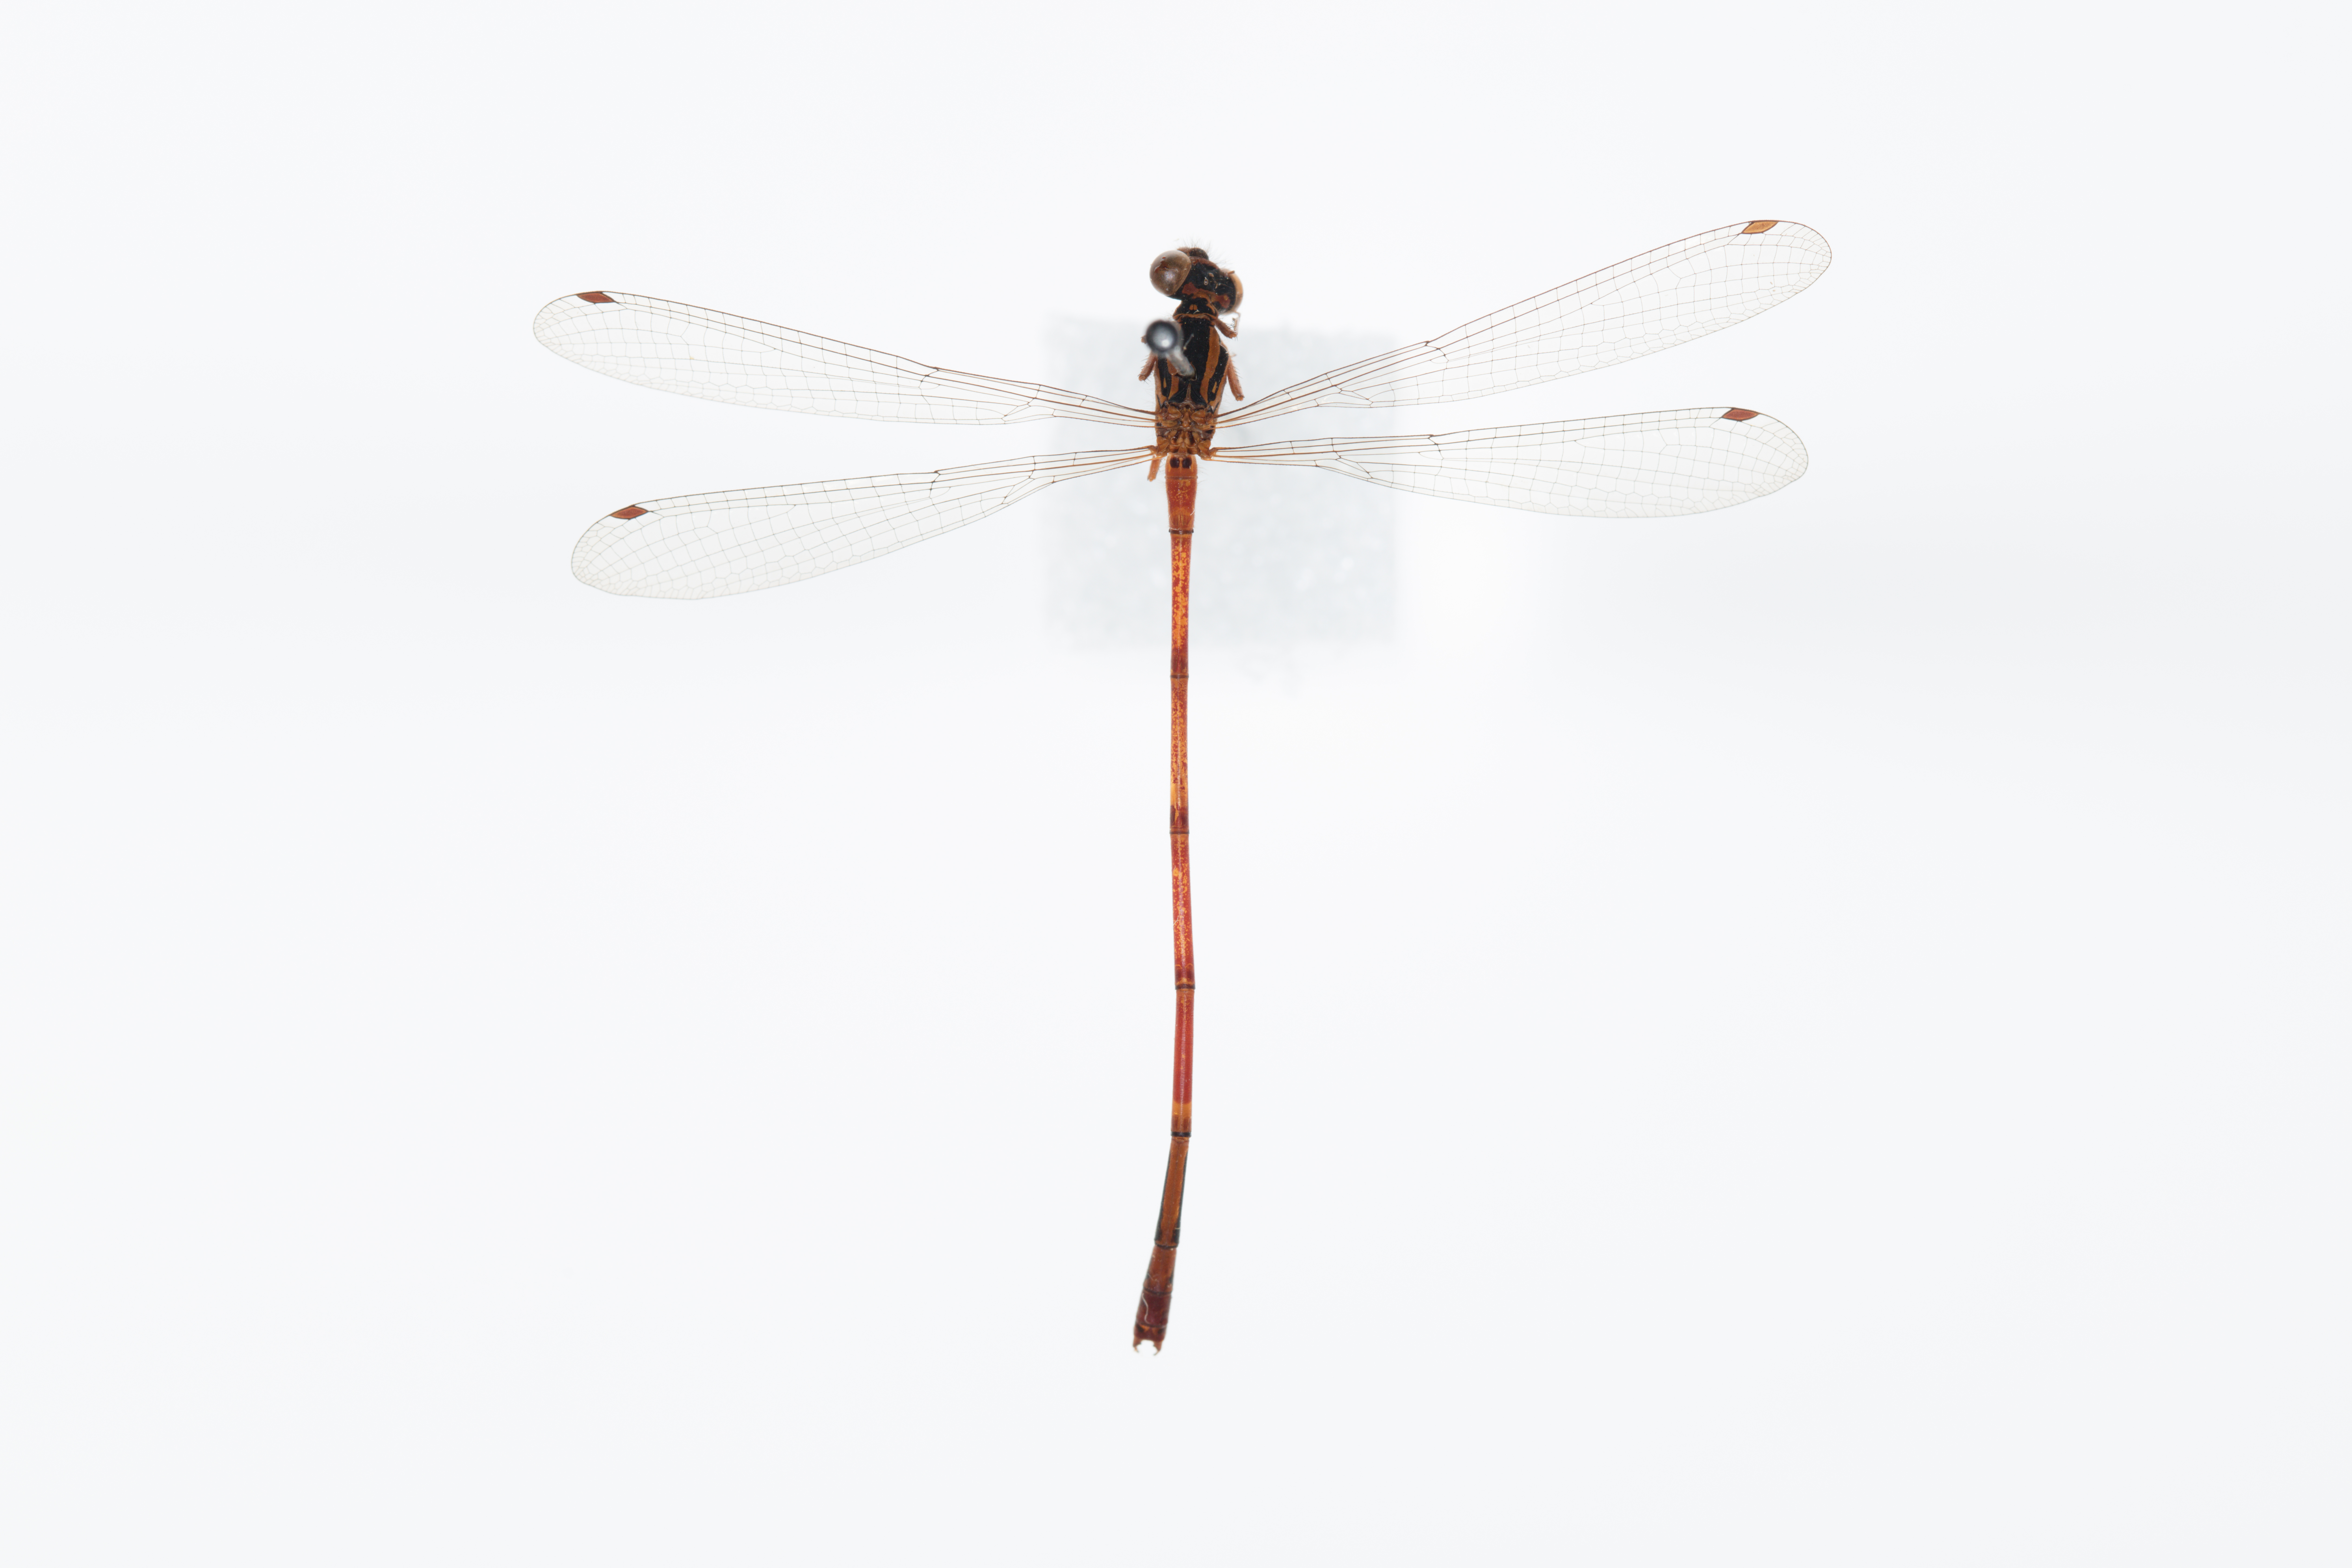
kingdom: Animalia
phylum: Arthropoda
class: Insecta
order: Odonata
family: Coenagrionidae
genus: Xanthocnemis
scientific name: Xanthocnemis zealandica
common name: Common redcoat damselfly
